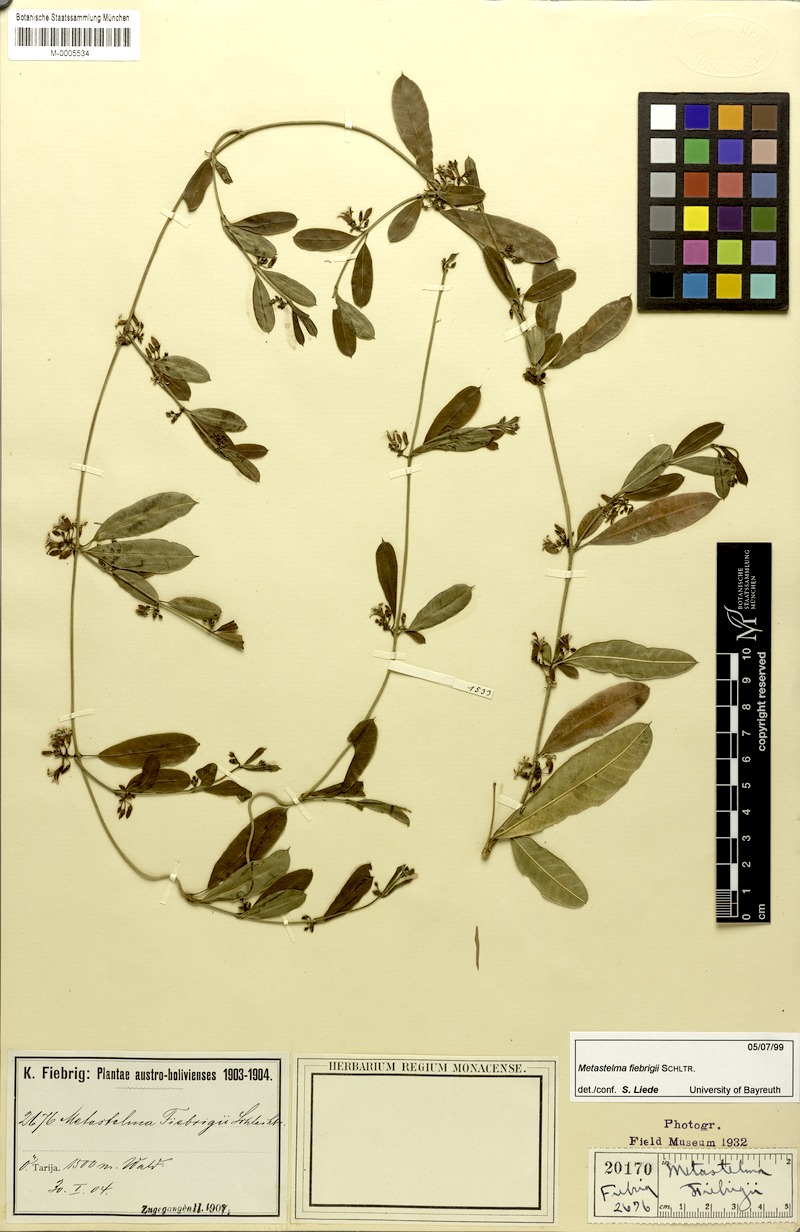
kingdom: Plantae
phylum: Tracheophyta
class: Magnoliopsida
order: Gentianales
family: Apocynaceae
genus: Metastelma
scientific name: Metastelma fiebrigii
